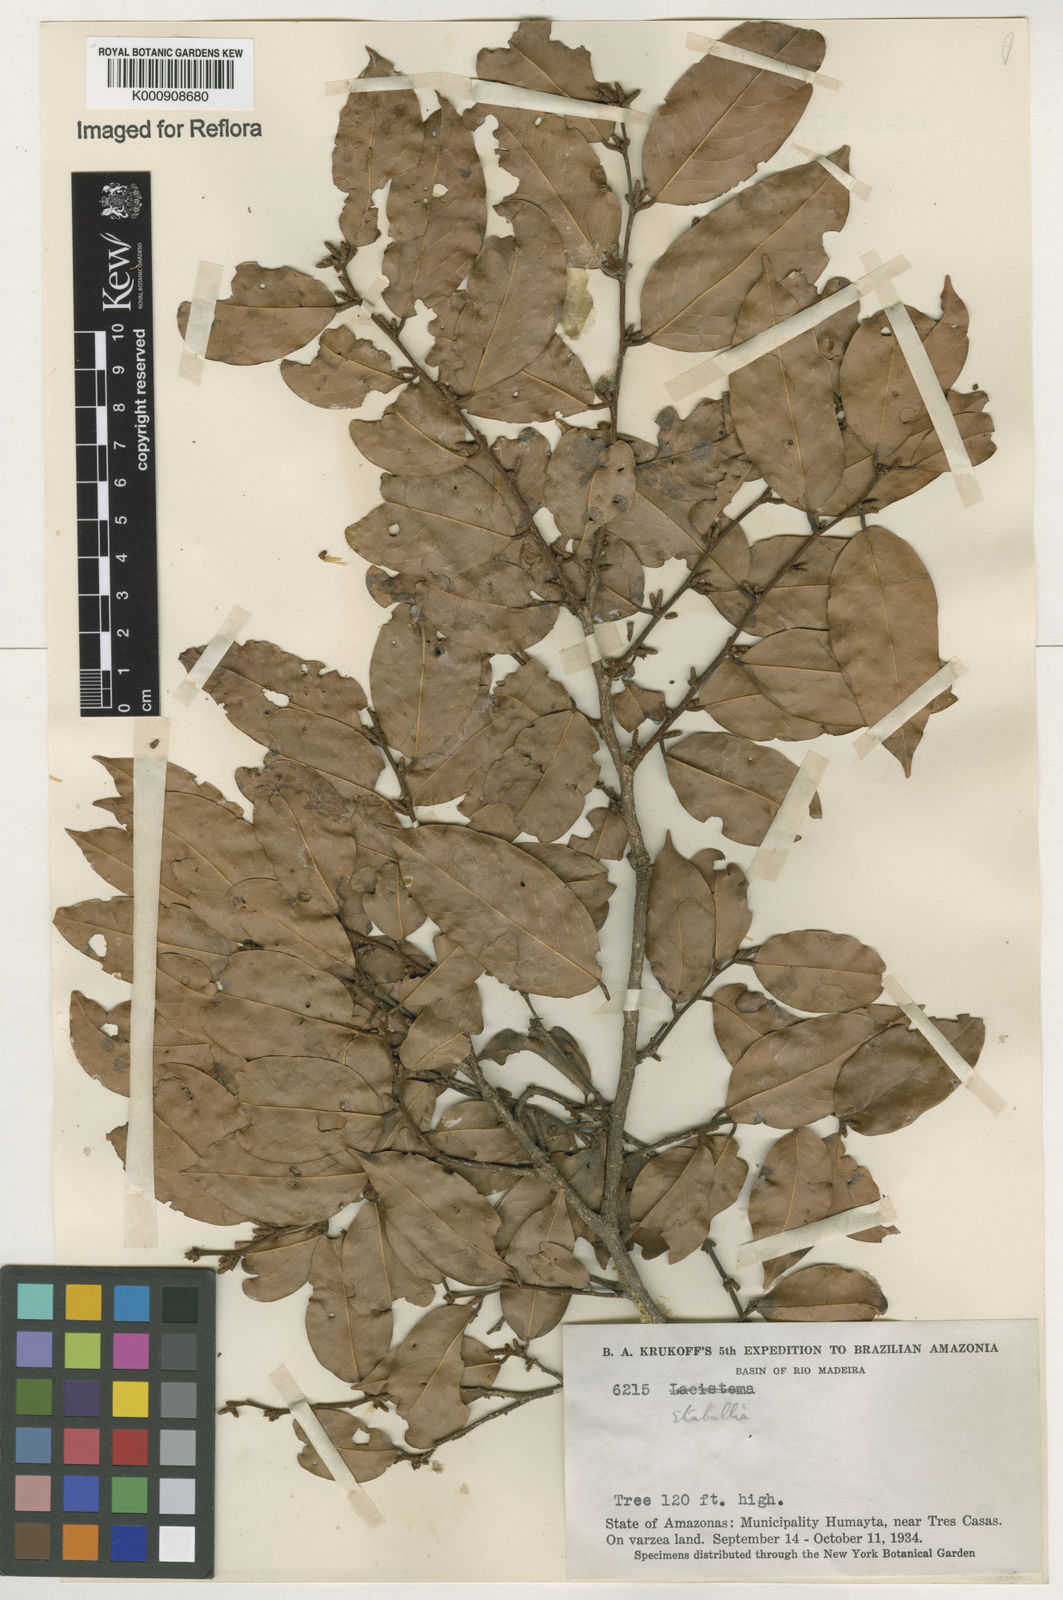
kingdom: Plantae
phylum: Tracheophyta
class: Magnoliopsida
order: Fabales
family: Fabaceae
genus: Pterocarpus
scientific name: Pterocarpus dubius
